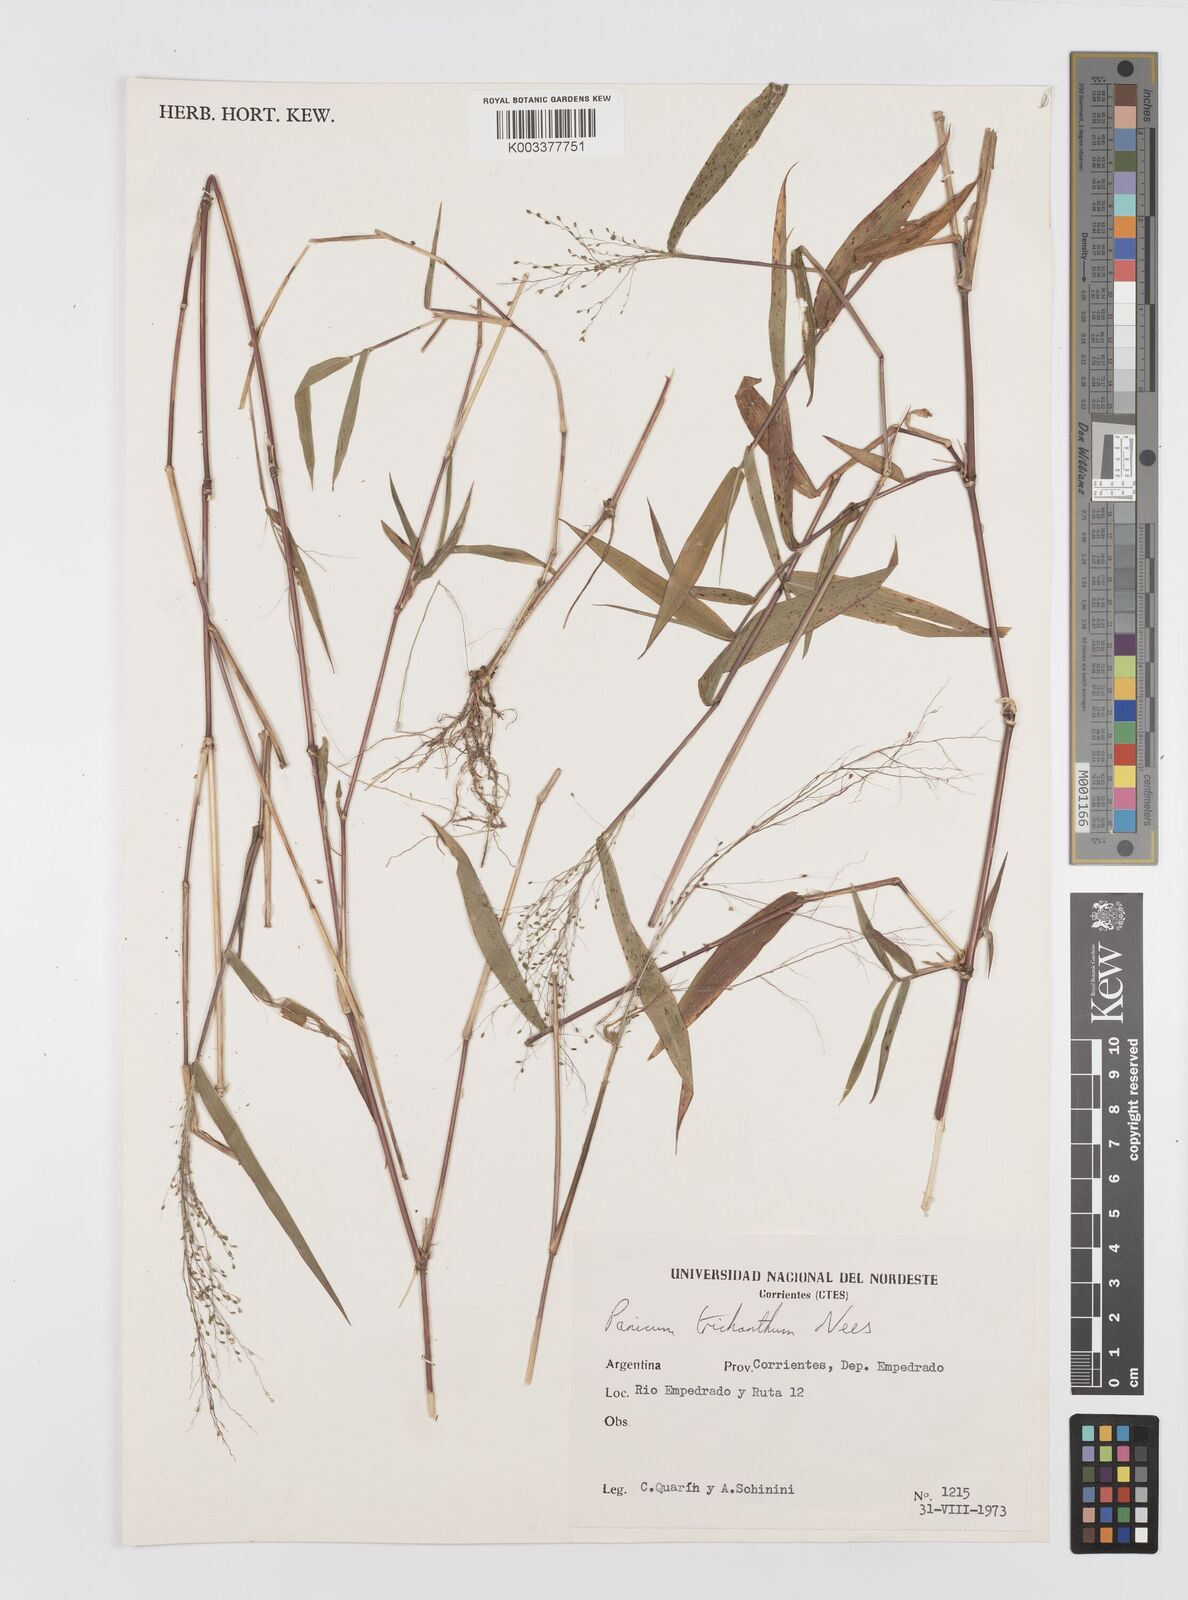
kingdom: Plantae
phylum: Tracheophyta
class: Liliopsida
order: Poales
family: Poaceae
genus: Panicum
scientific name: Panicum trichanthum
